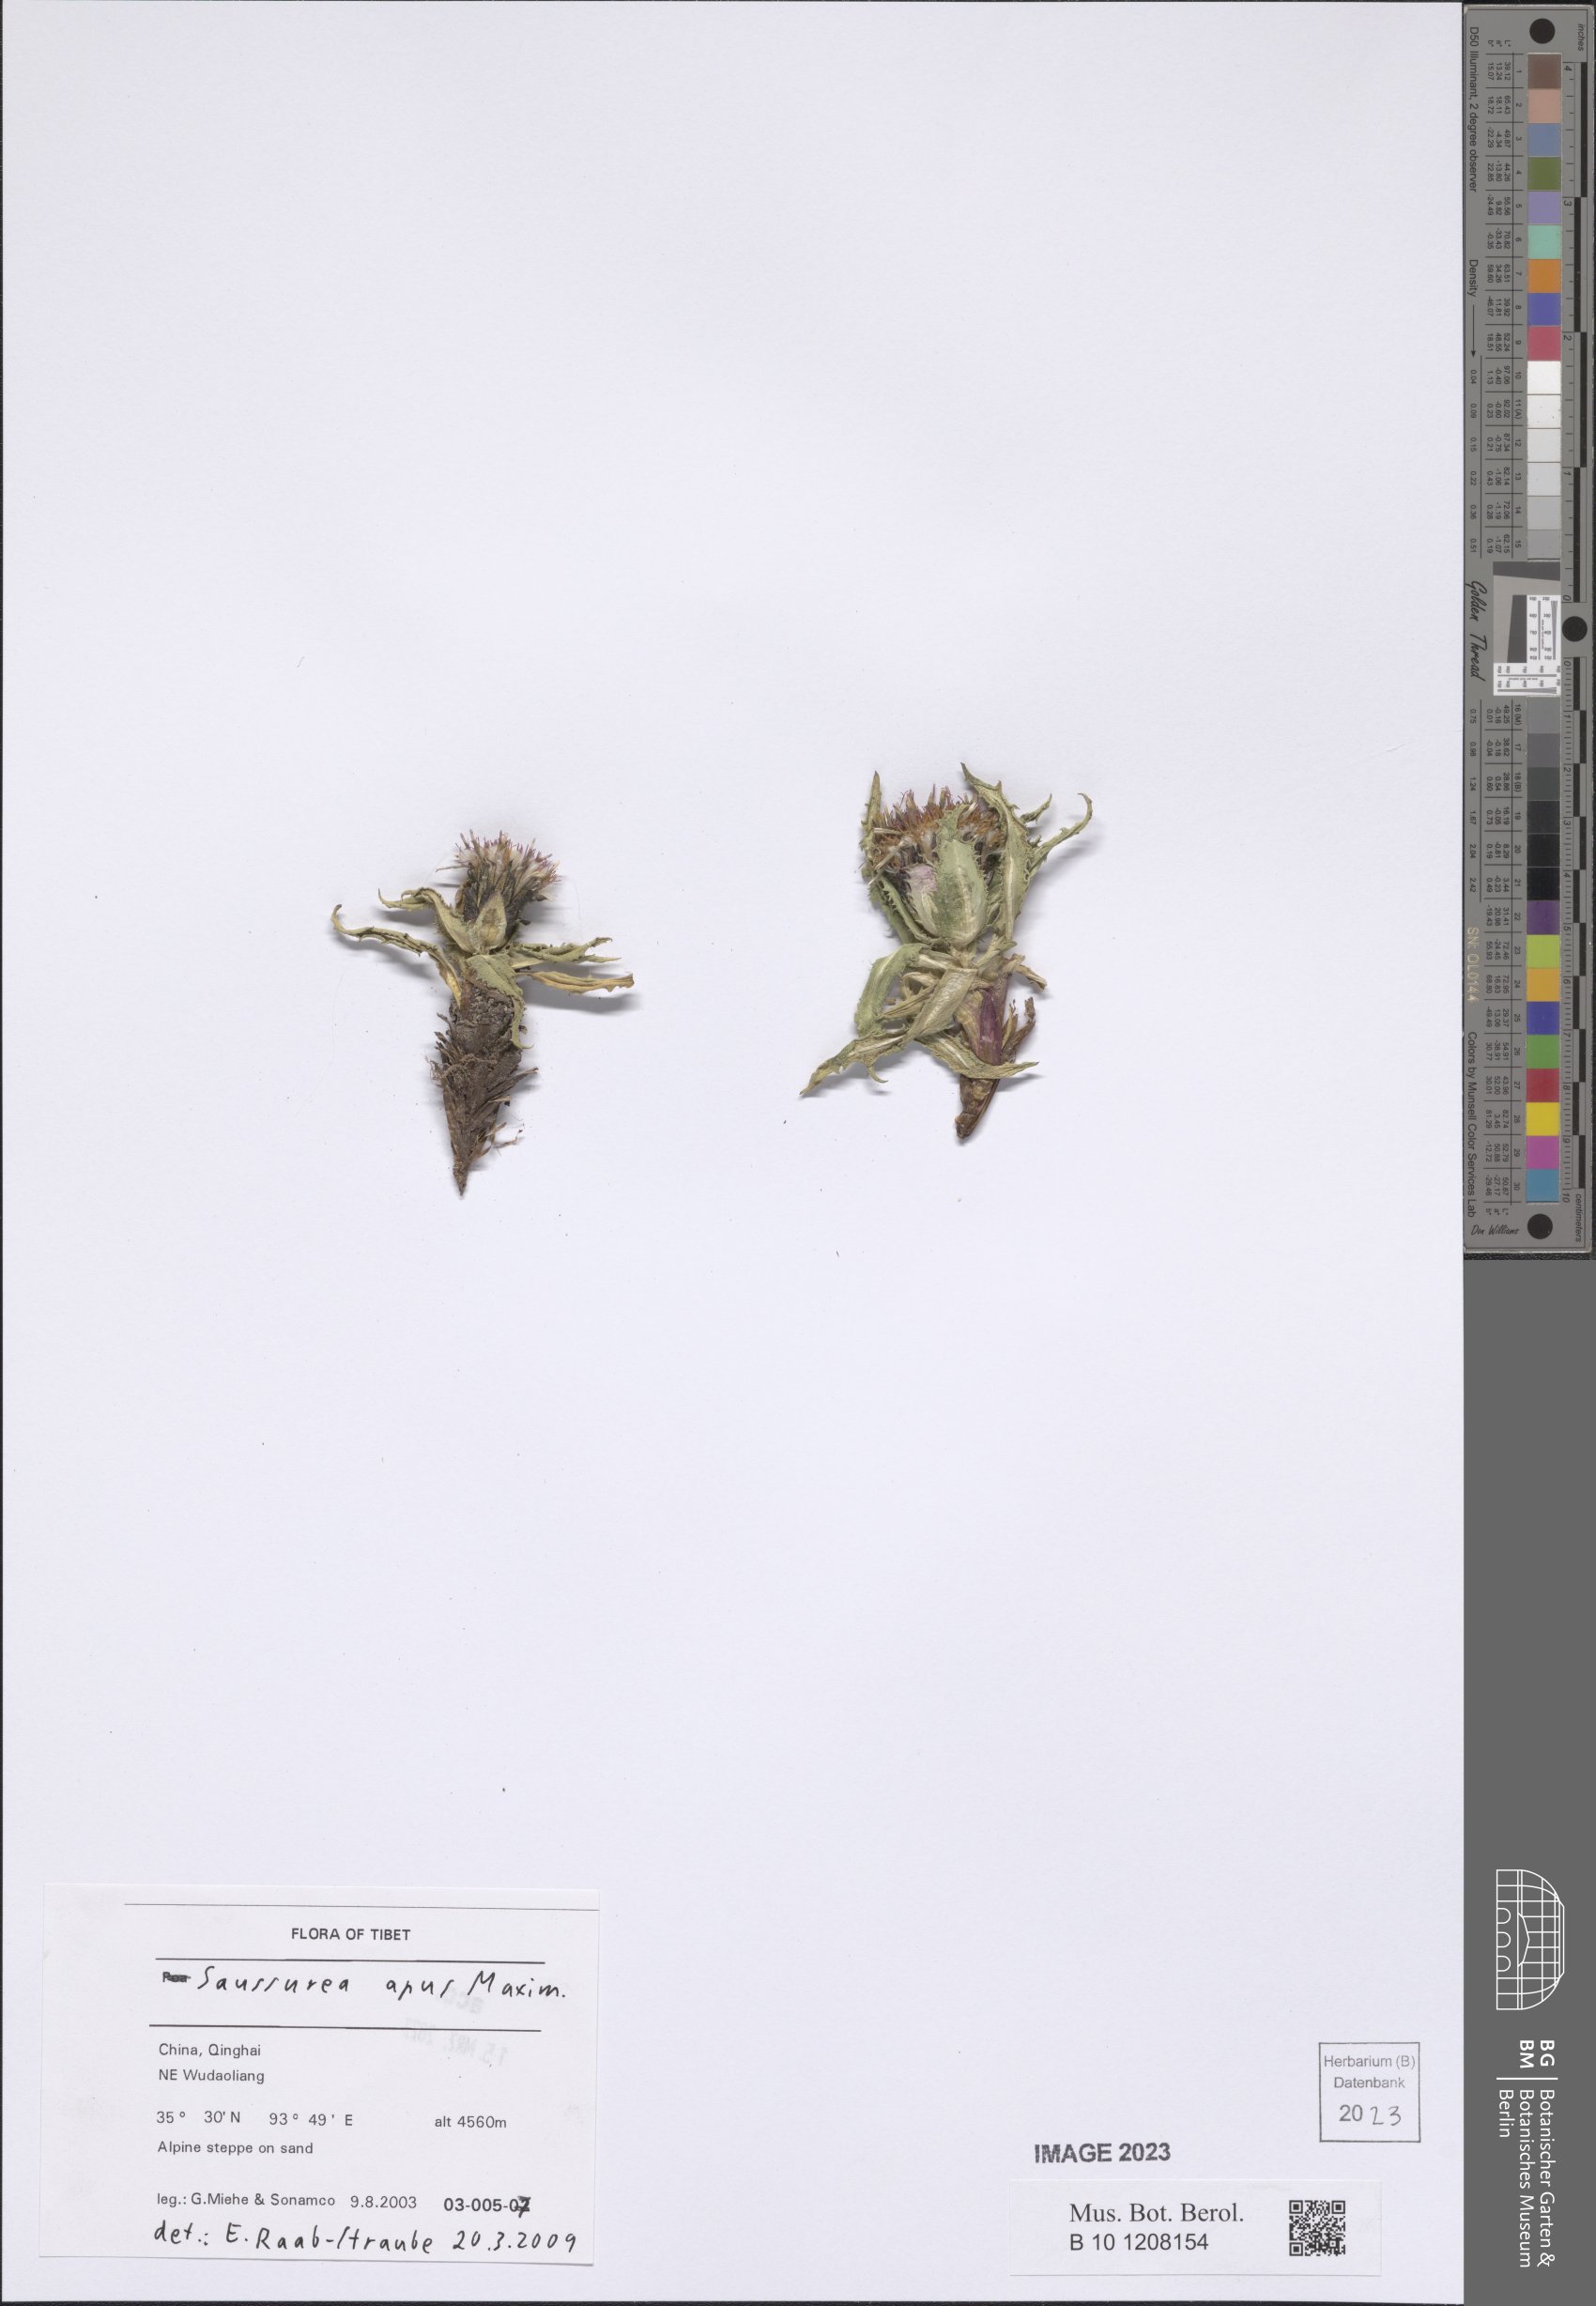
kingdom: Plantae
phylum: Tracheophyta
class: Magnoliopsida
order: Asterales
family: Asteraceae
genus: Saussurea
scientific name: Saussurea apus
